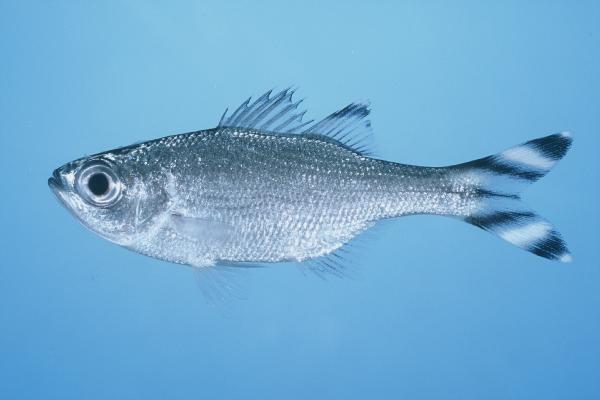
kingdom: Animalia
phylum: Chordata
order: Perciformes
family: Kuhliidae
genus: Kuhlia
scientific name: Kuhlia mugil
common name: Barred flagtail
